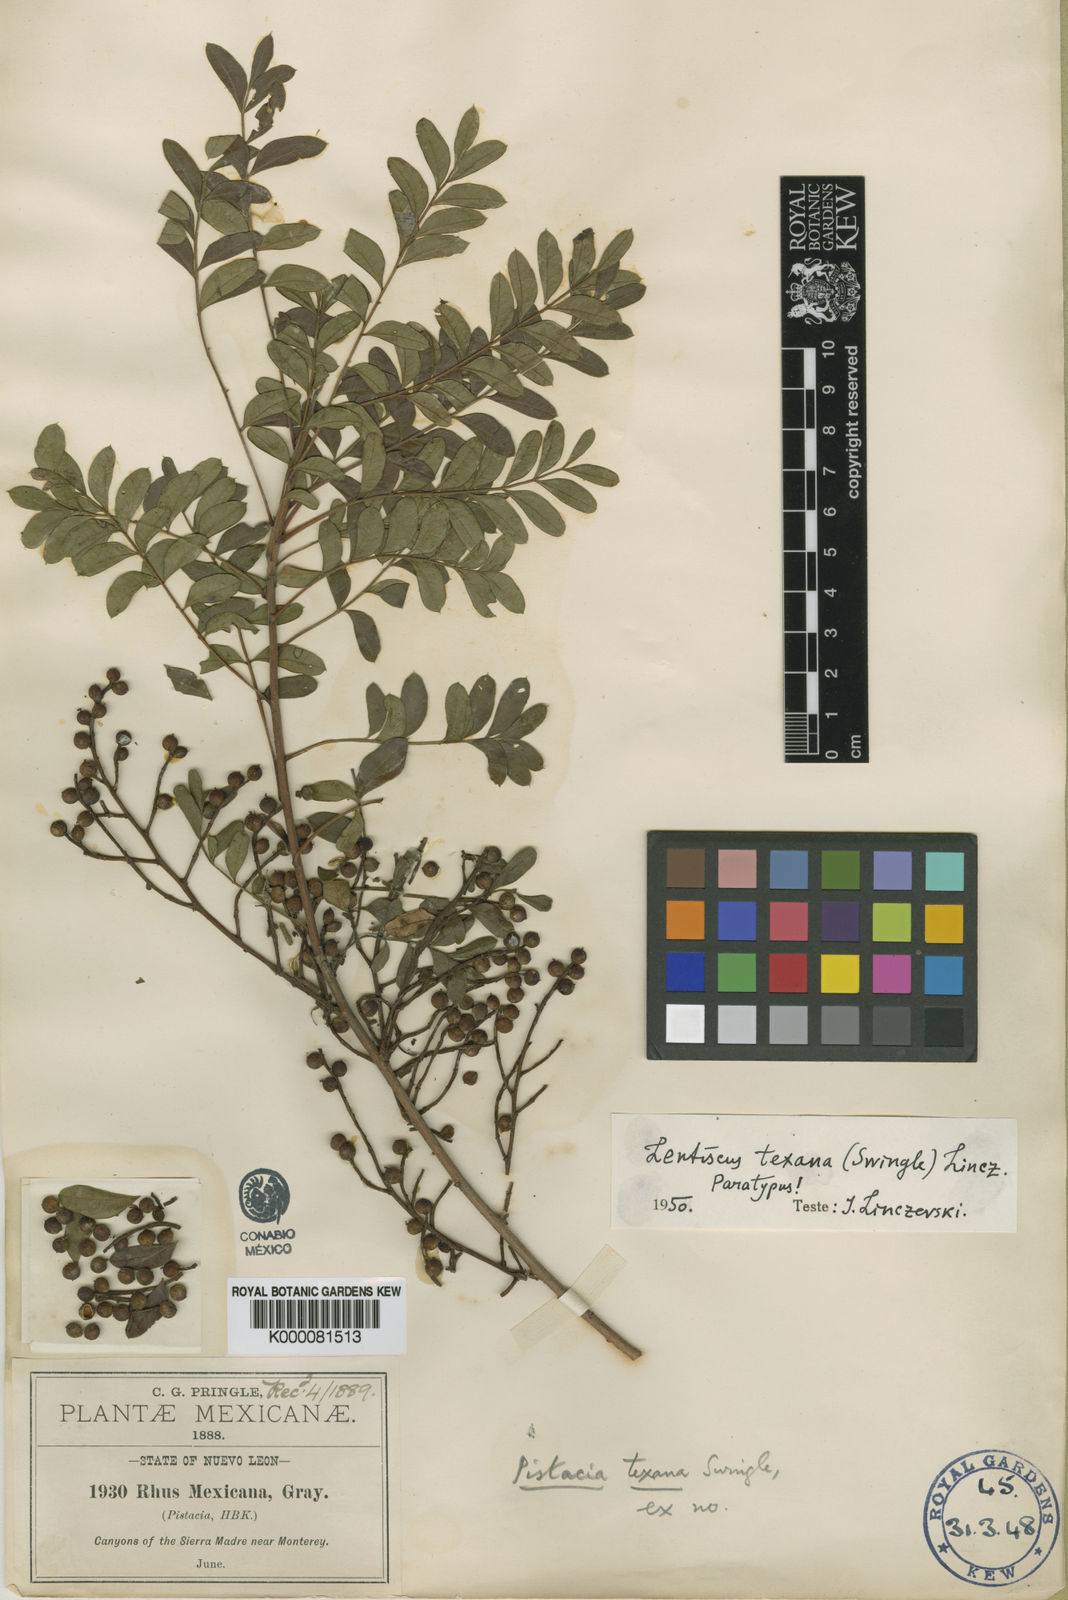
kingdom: Plantae
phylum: Tracheophyta
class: Magnoliopsida
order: Sapindales
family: Anacardiaceae
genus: Pistacia
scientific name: Pistacia
